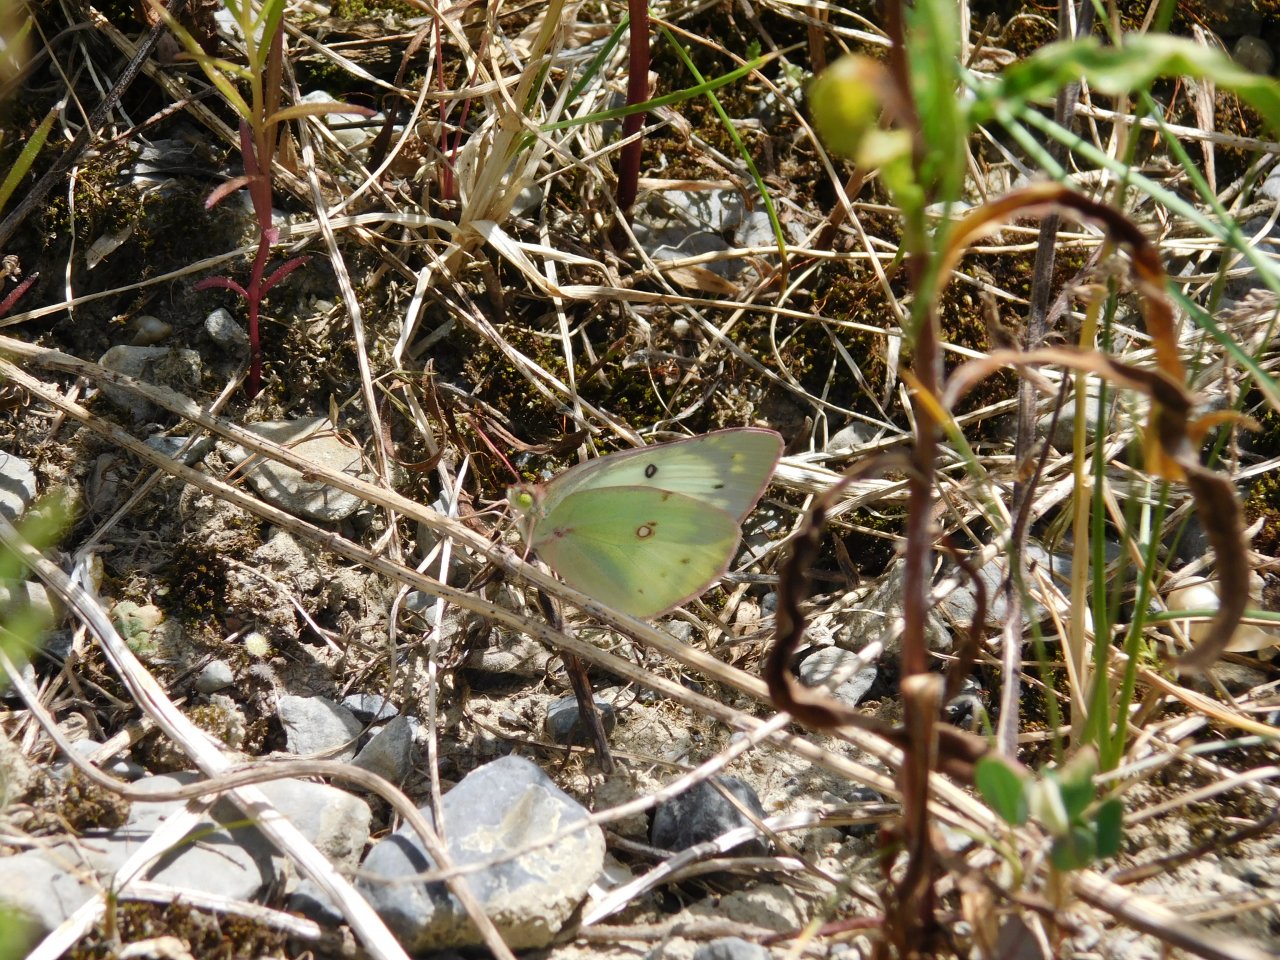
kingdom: Animalia
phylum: Arthropoda
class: Insecta
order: Lepidoptera
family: Pieridae
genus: Colias
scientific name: Colias philodice
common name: Clouded Sulphur
